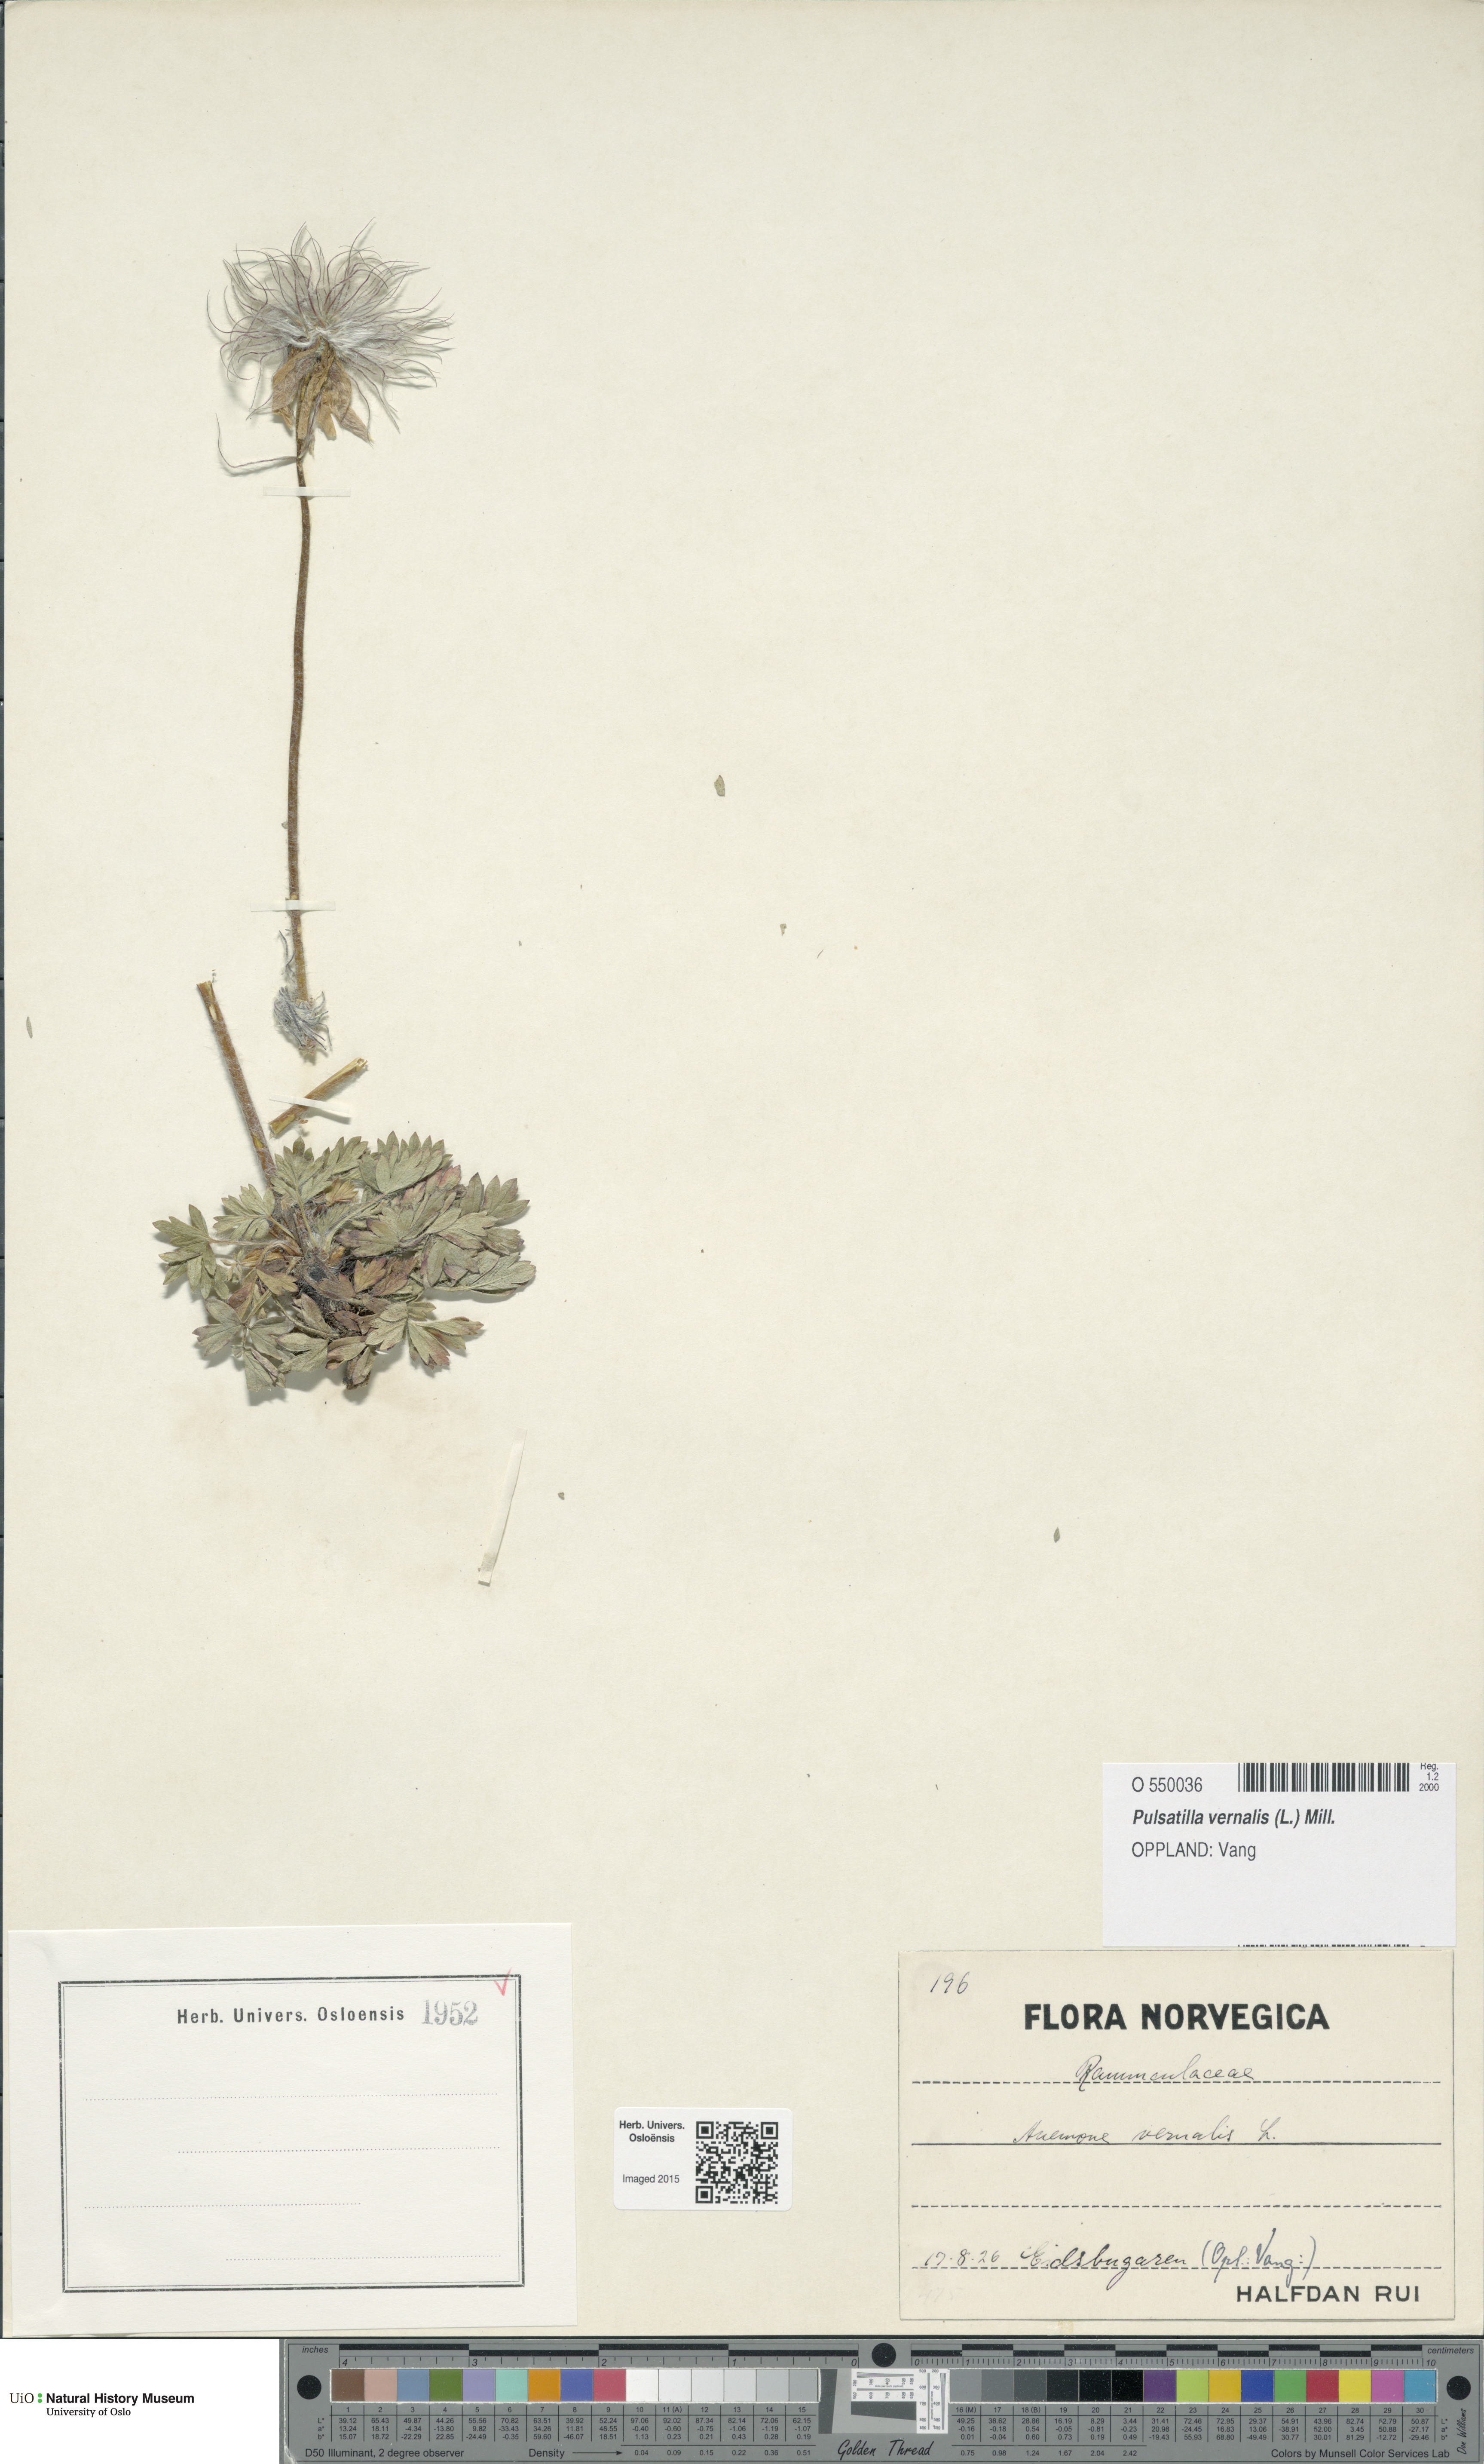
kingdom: Plantae
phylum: Tracheophyta
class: Magnoliopsida
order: Ranunculales
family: Ranunculaceae
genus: Pulsatilla
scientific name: Pulsatilla vernalis
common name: Spring pasque flower
